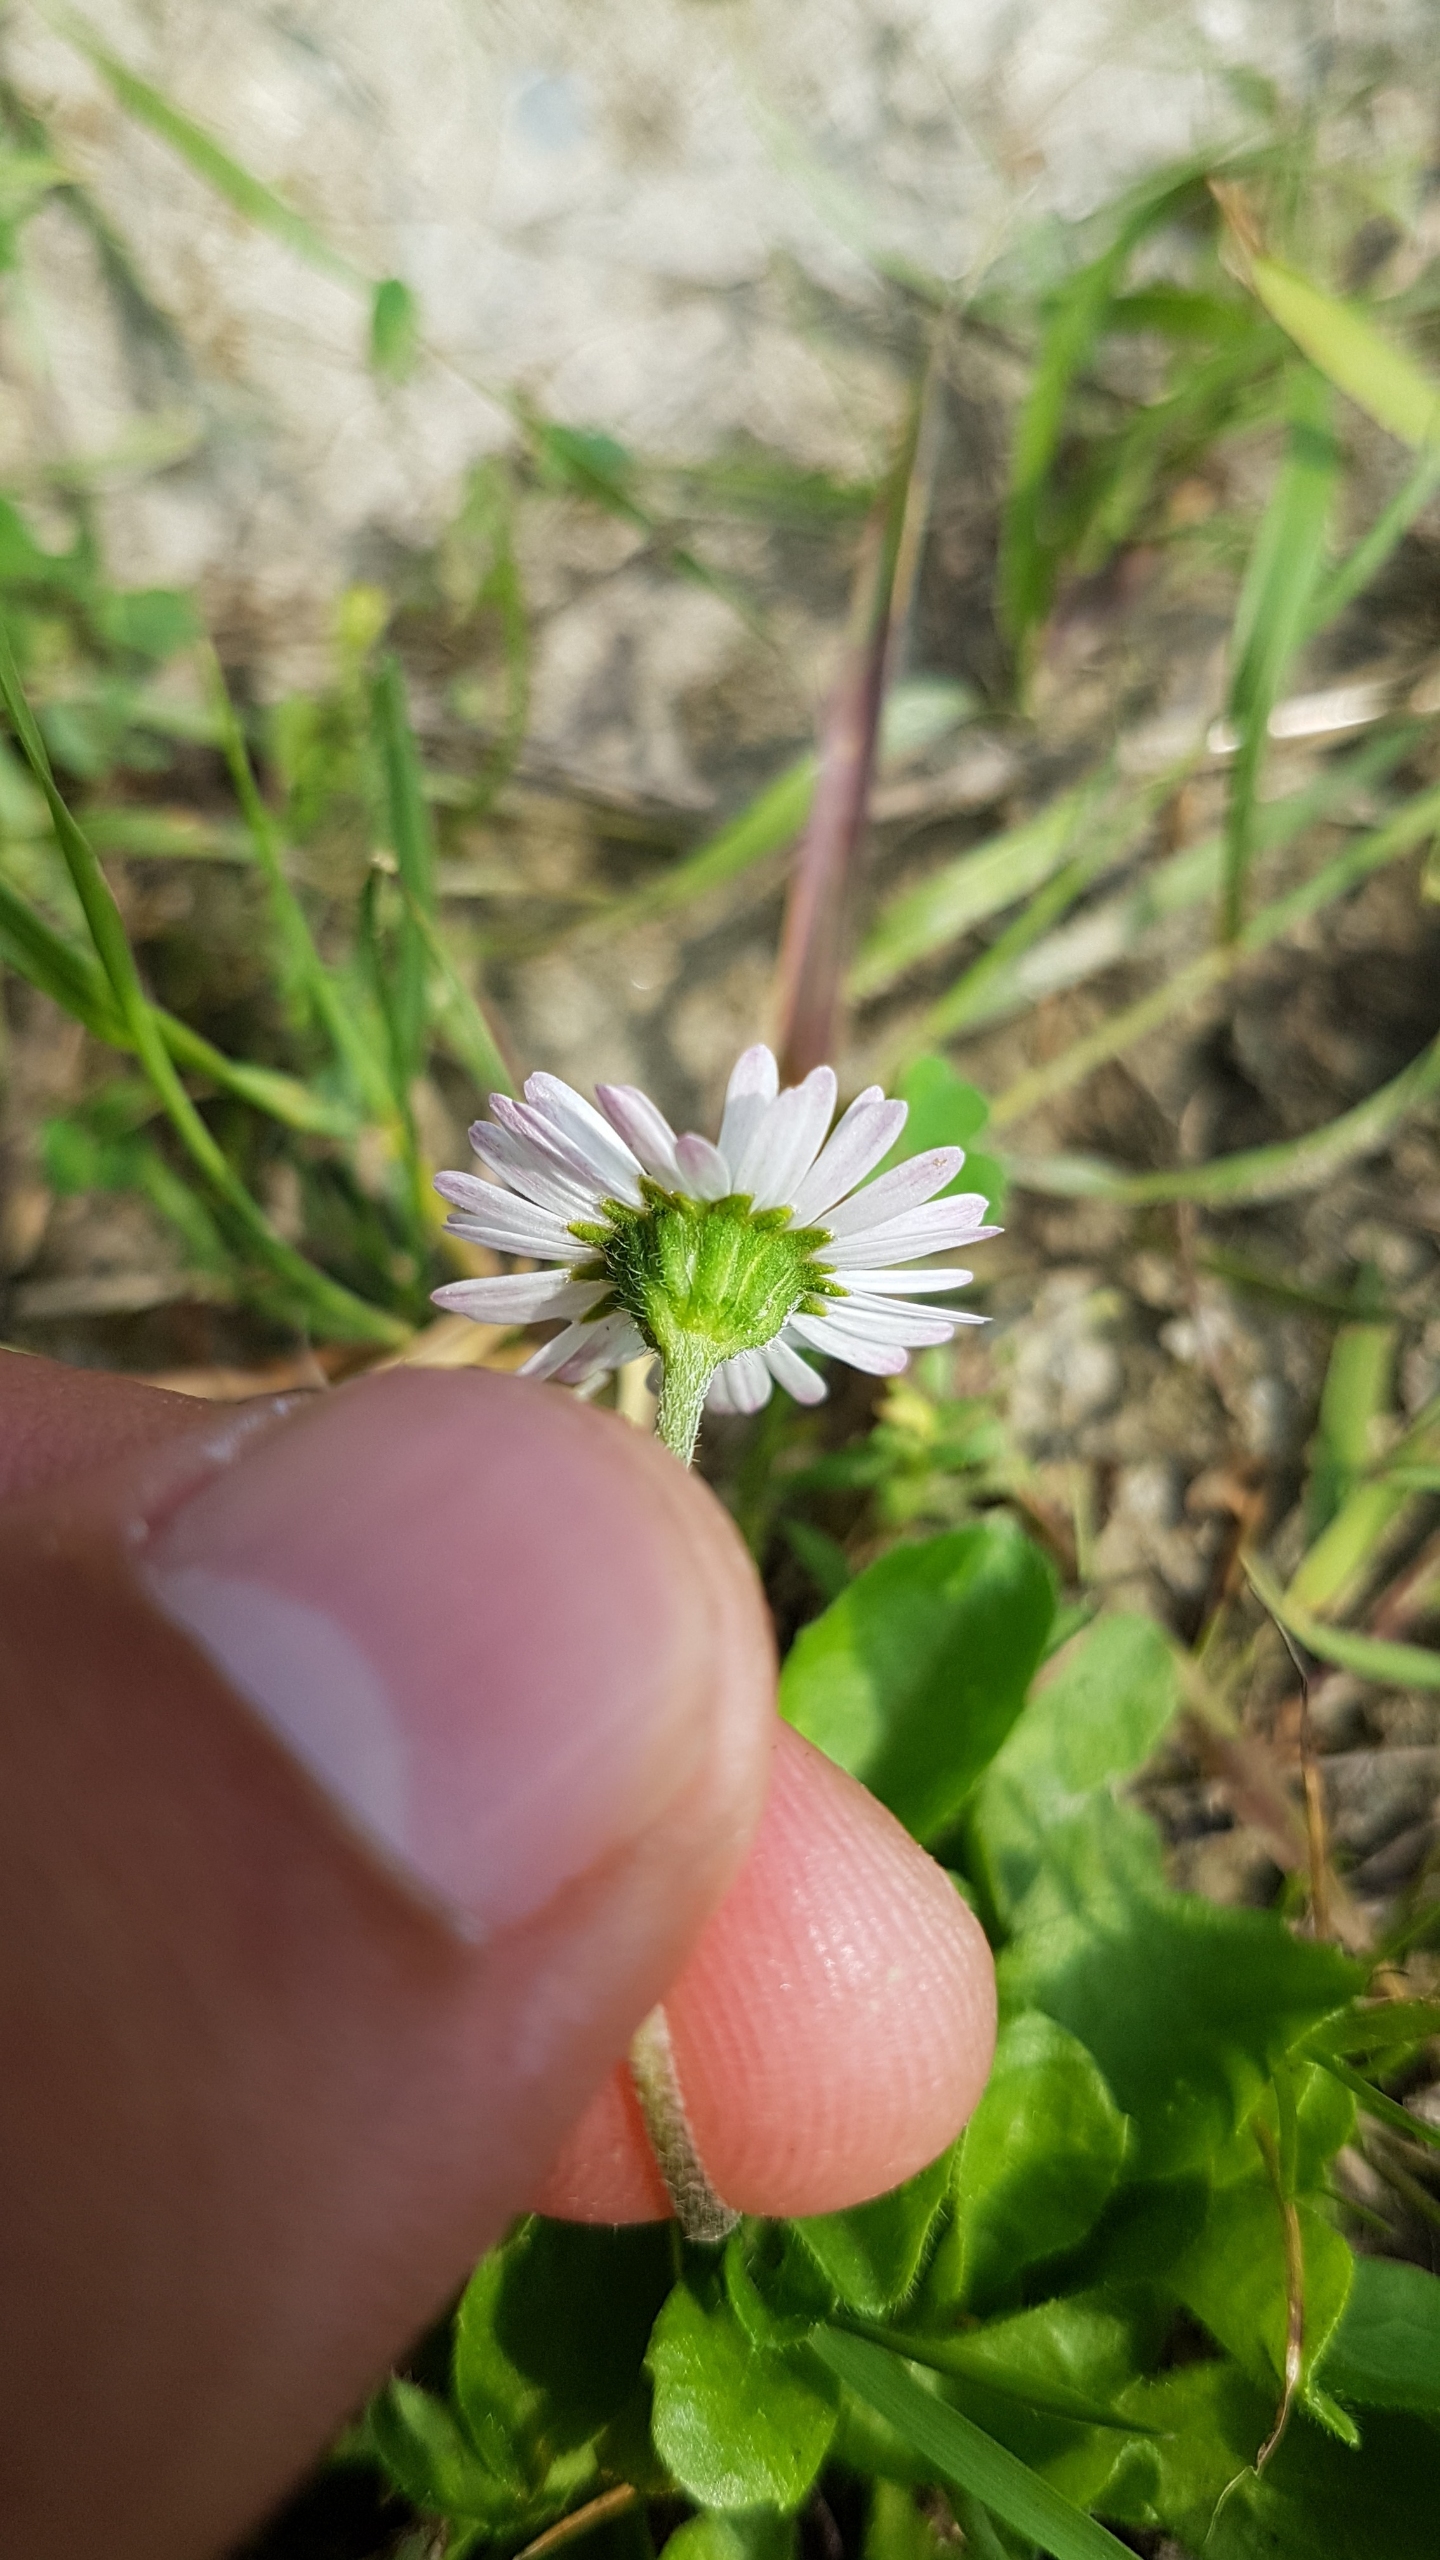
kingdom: Plantae
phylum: Tracheophyta
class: Magnoliopsida
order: Asterales
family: Asteraceae
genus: Bellis
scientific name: Bellis perennis
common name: Tusindfryd
